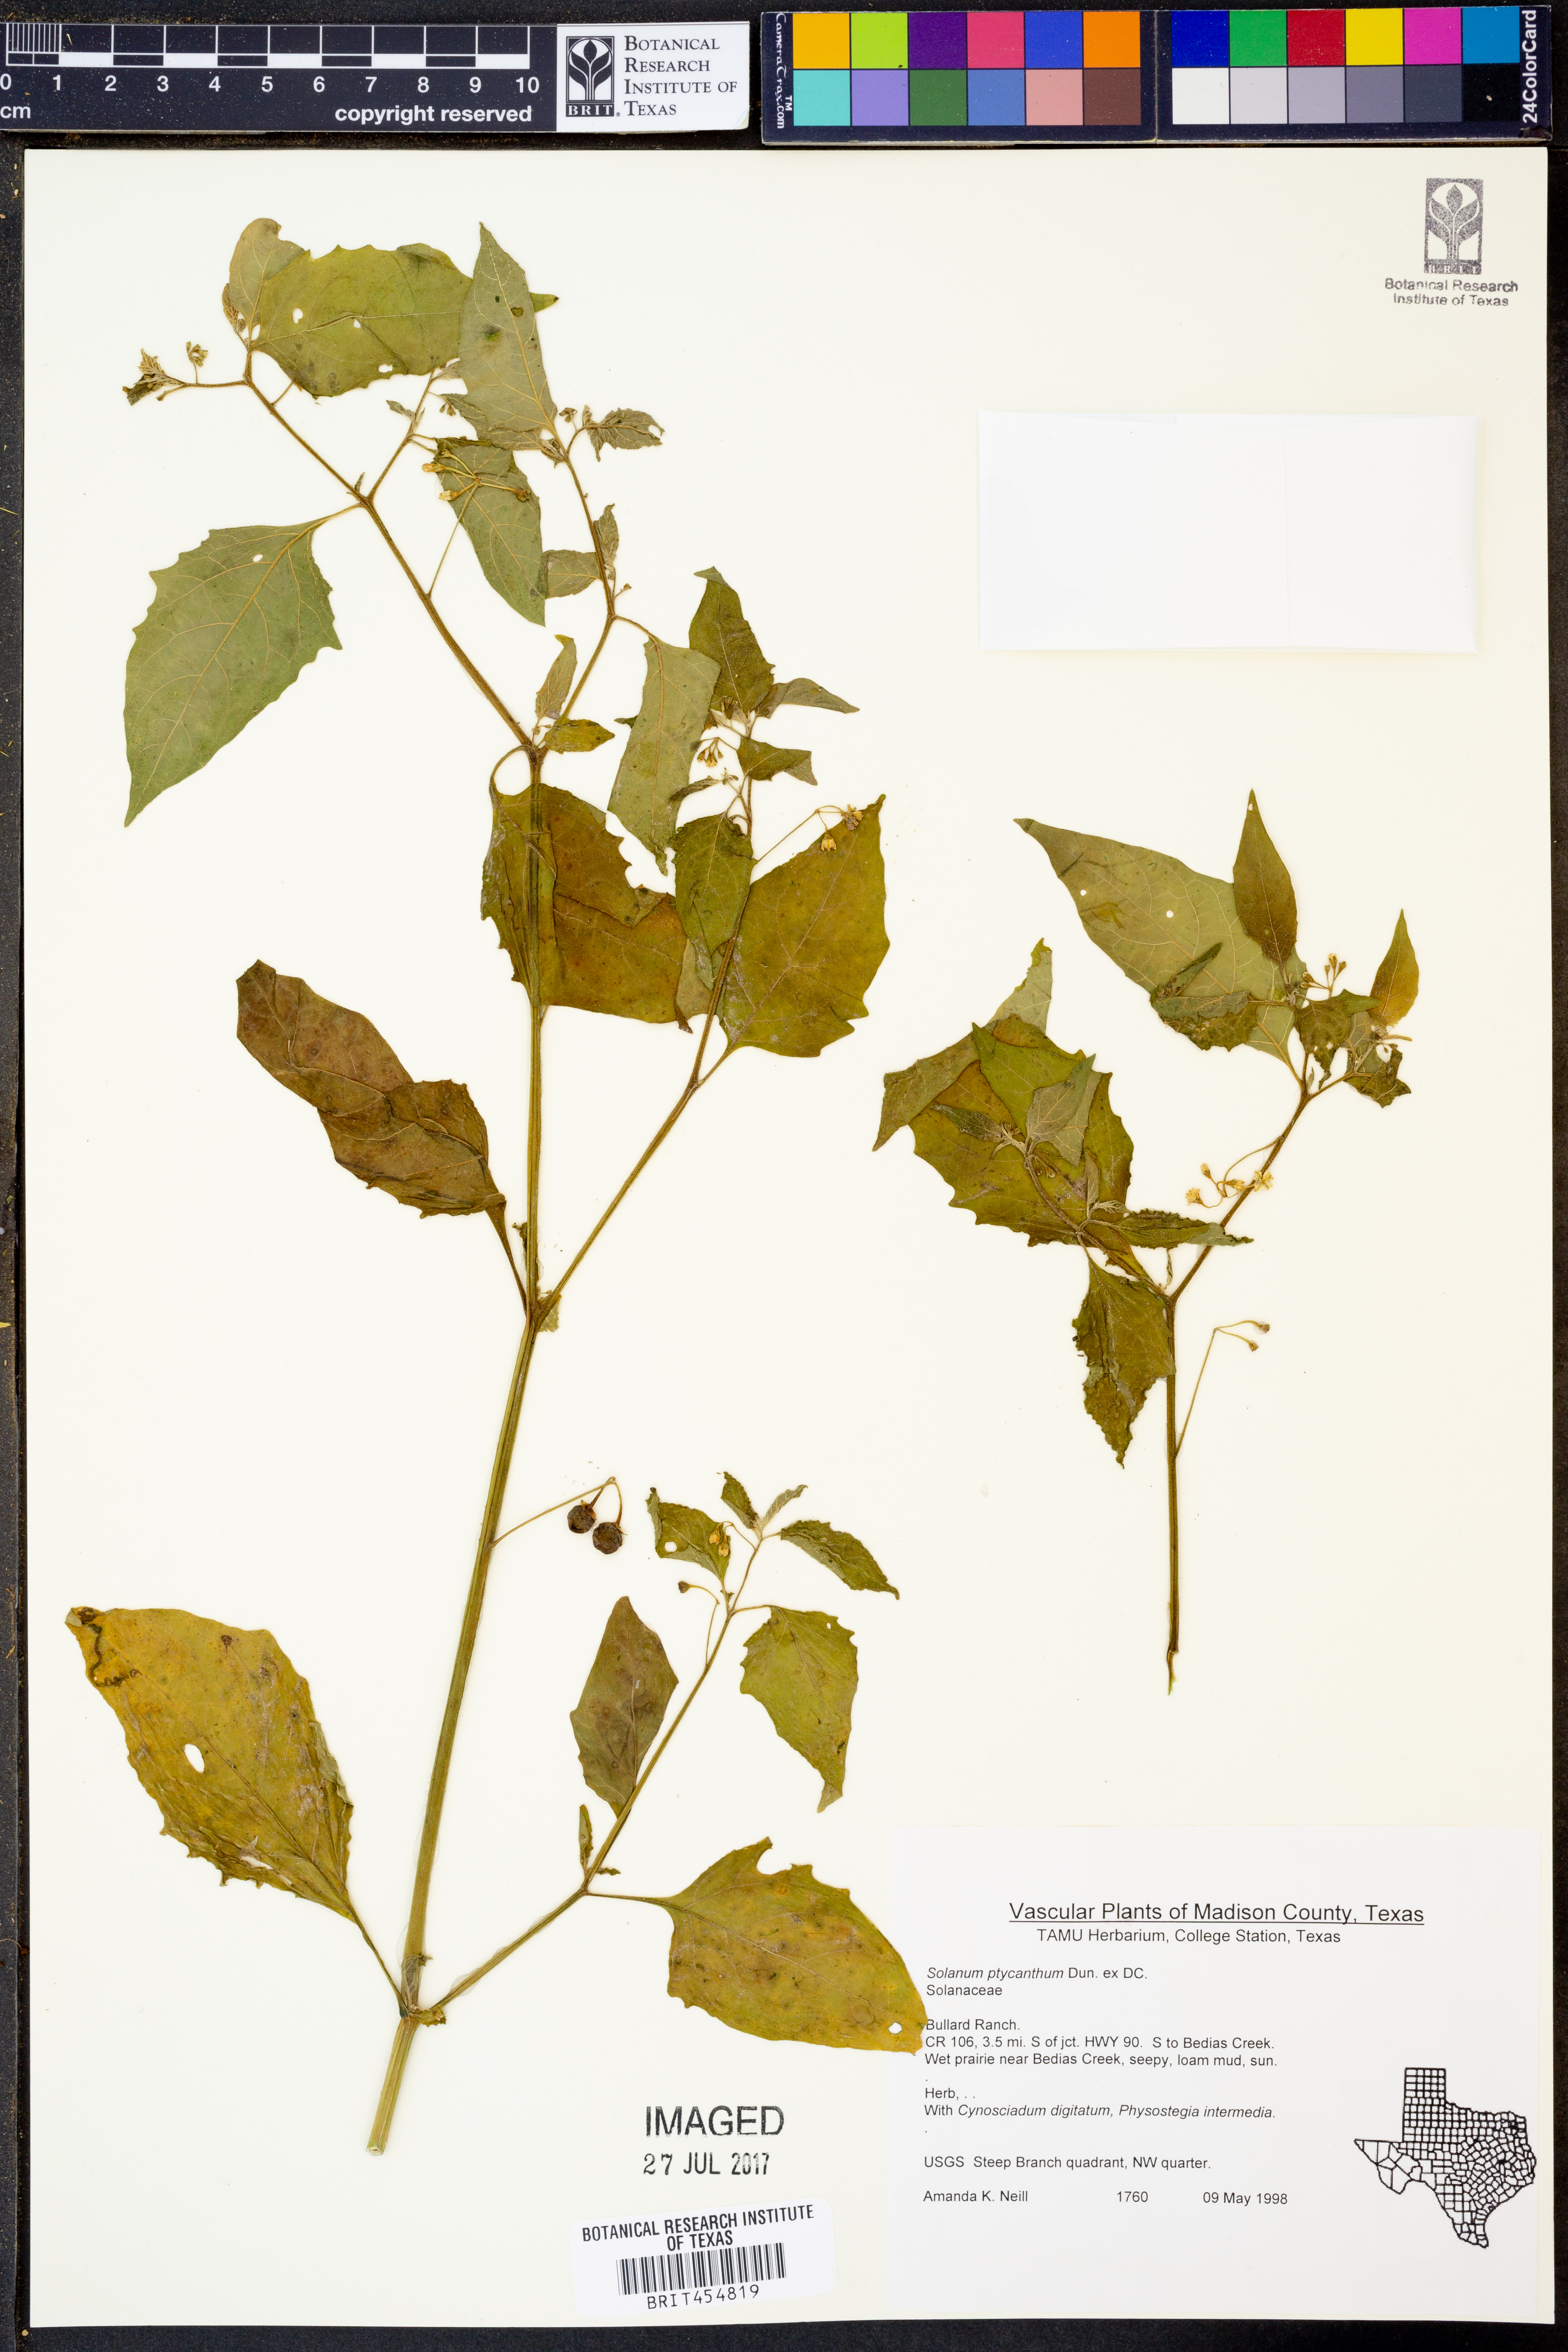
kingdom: Plantae
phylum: Tracheophyta
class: Magnoliopsida
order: Solanales
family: Solanaceae
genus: Solanum
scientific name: Solanum americanum
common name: American black nightshade
